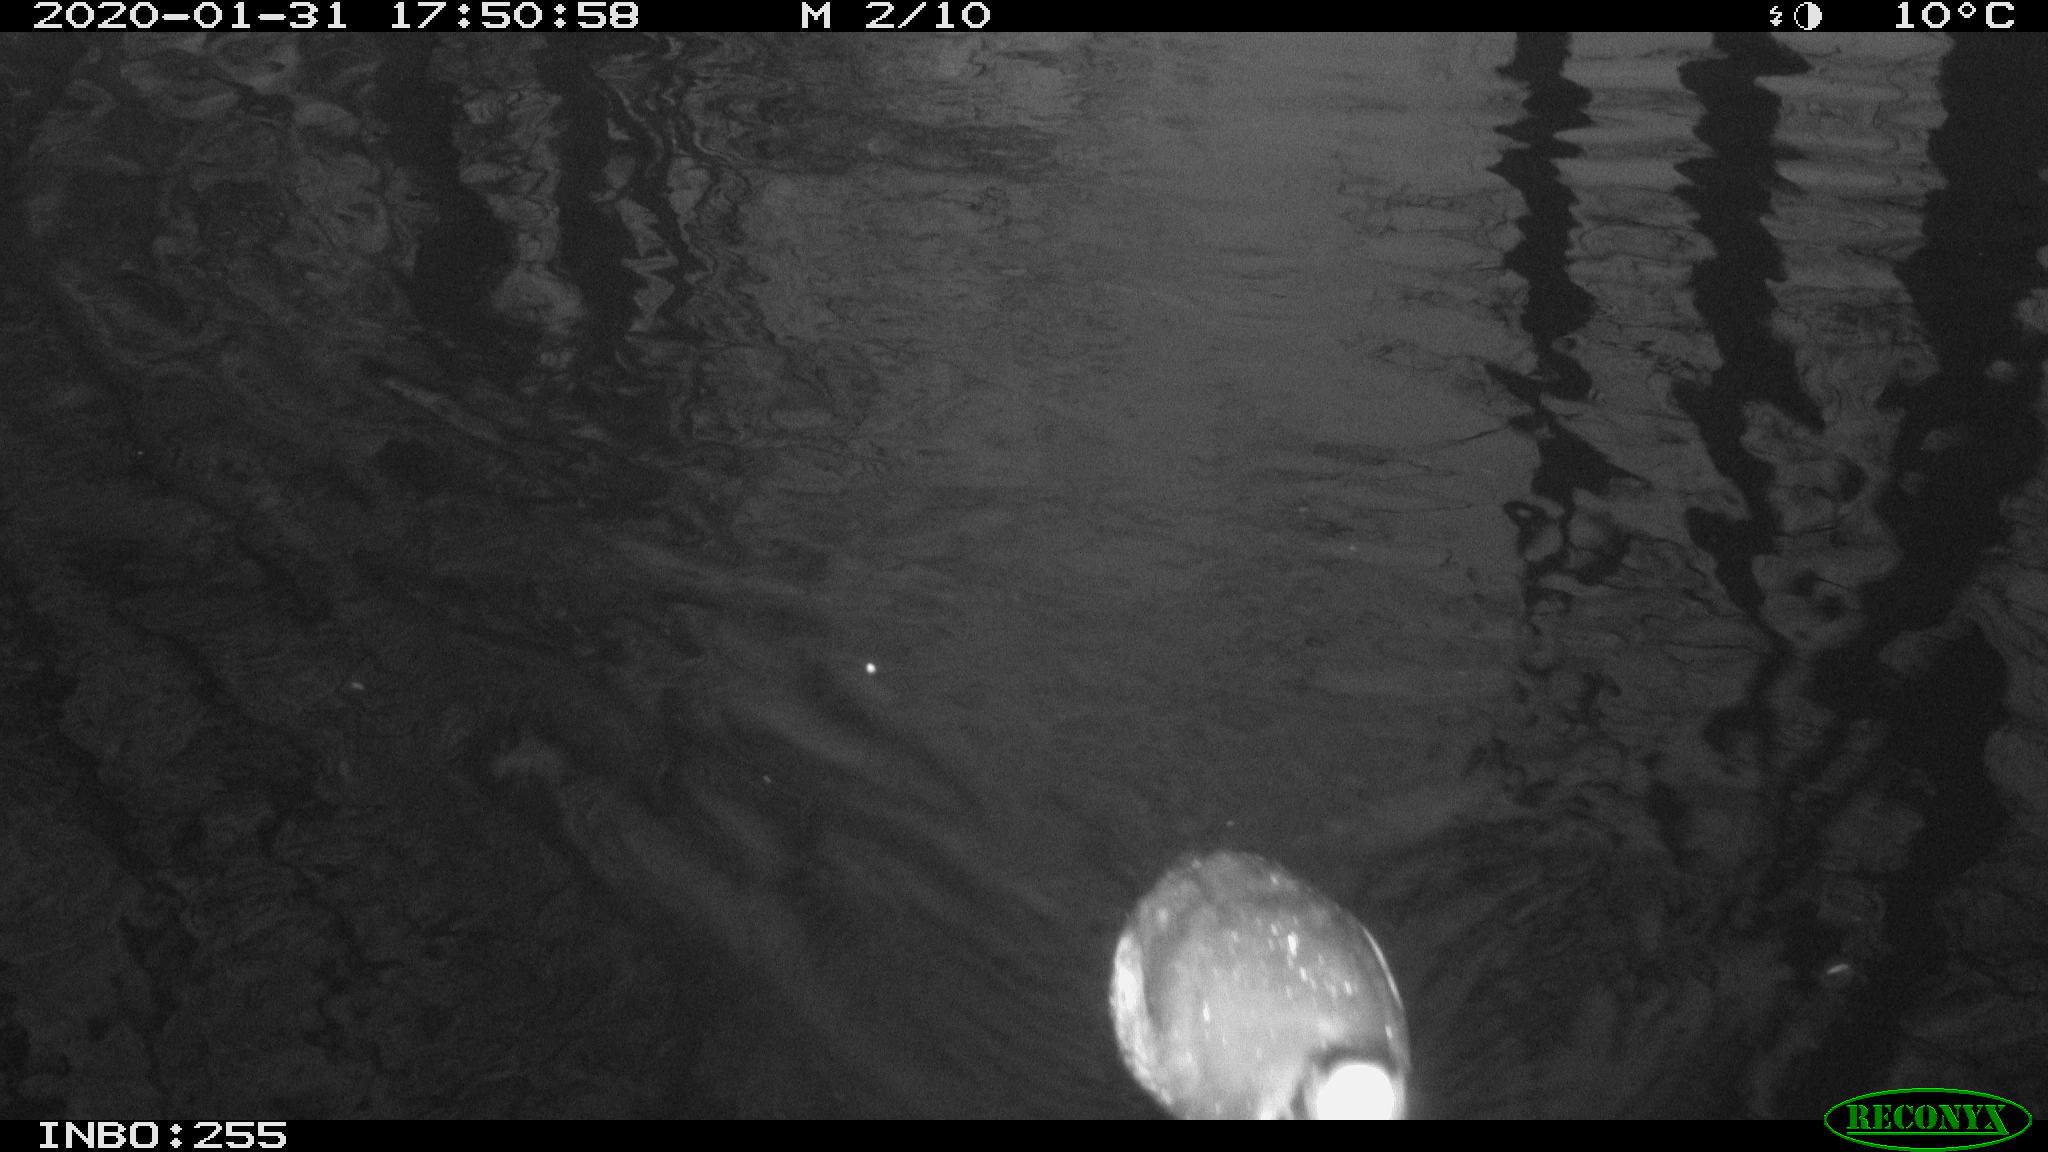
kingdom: Animalia
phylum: Chordata
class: Aves
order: Gruiformes
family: Rallidae
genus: Fulica
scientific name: Fulica atra
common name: Eurasian coot
